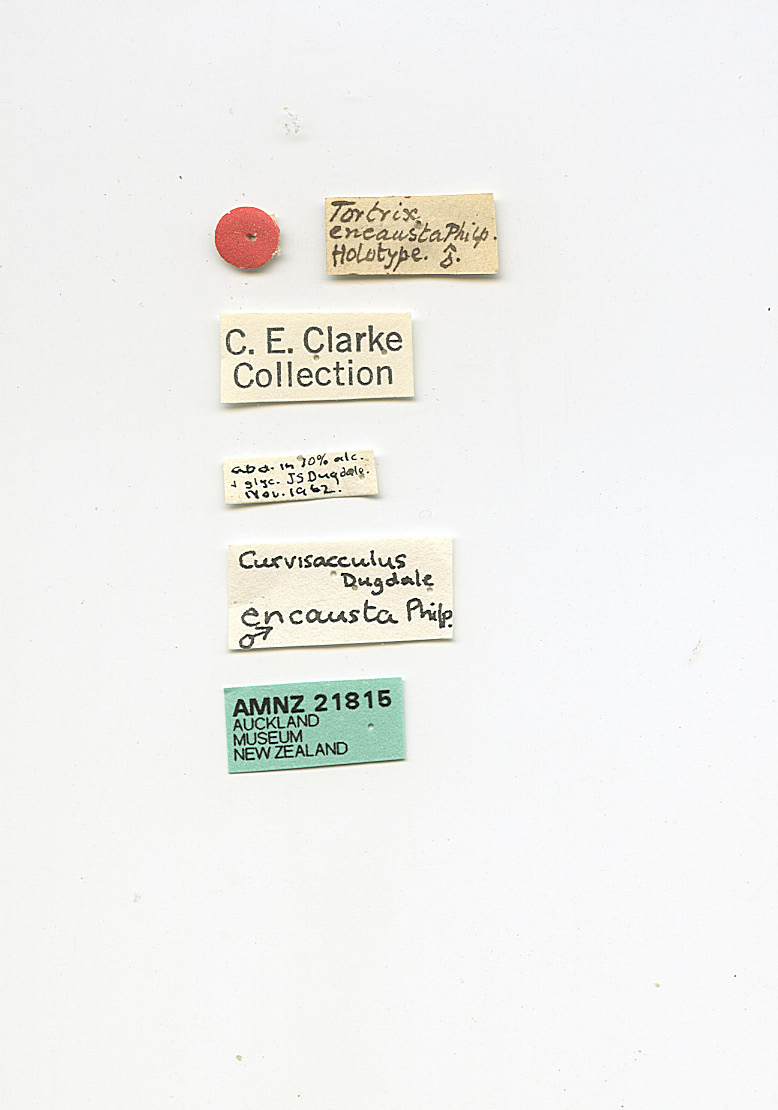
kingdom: Animalia
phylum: Arthropoda
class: Insecta
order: Lepidoptera
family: Tortricidae
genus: Ecclitica
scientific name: Ecclitica philpotti
